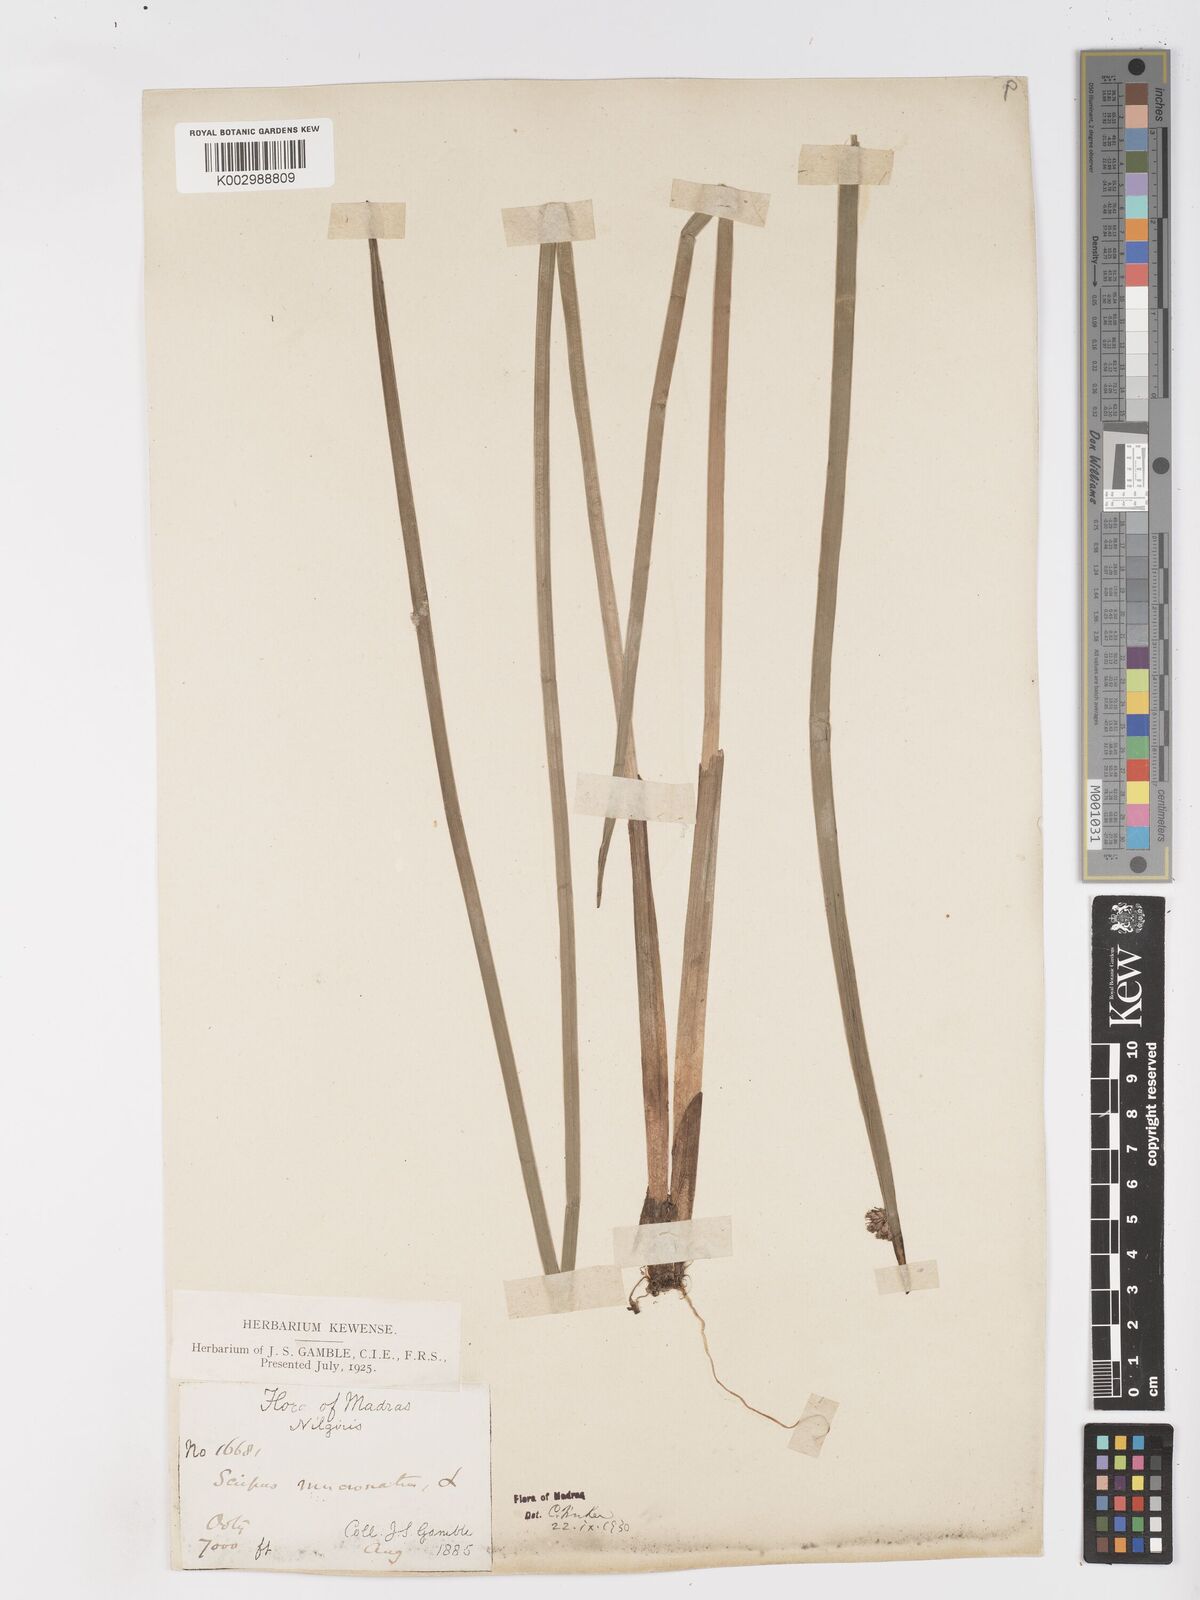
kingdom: Plantae
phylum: Tracheophyta
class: Liliopsida
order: Poales
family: Cyperaceae
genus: Schoenoplectiella
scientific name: Schoenoplectiella mucronata
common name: Bog bulrush
